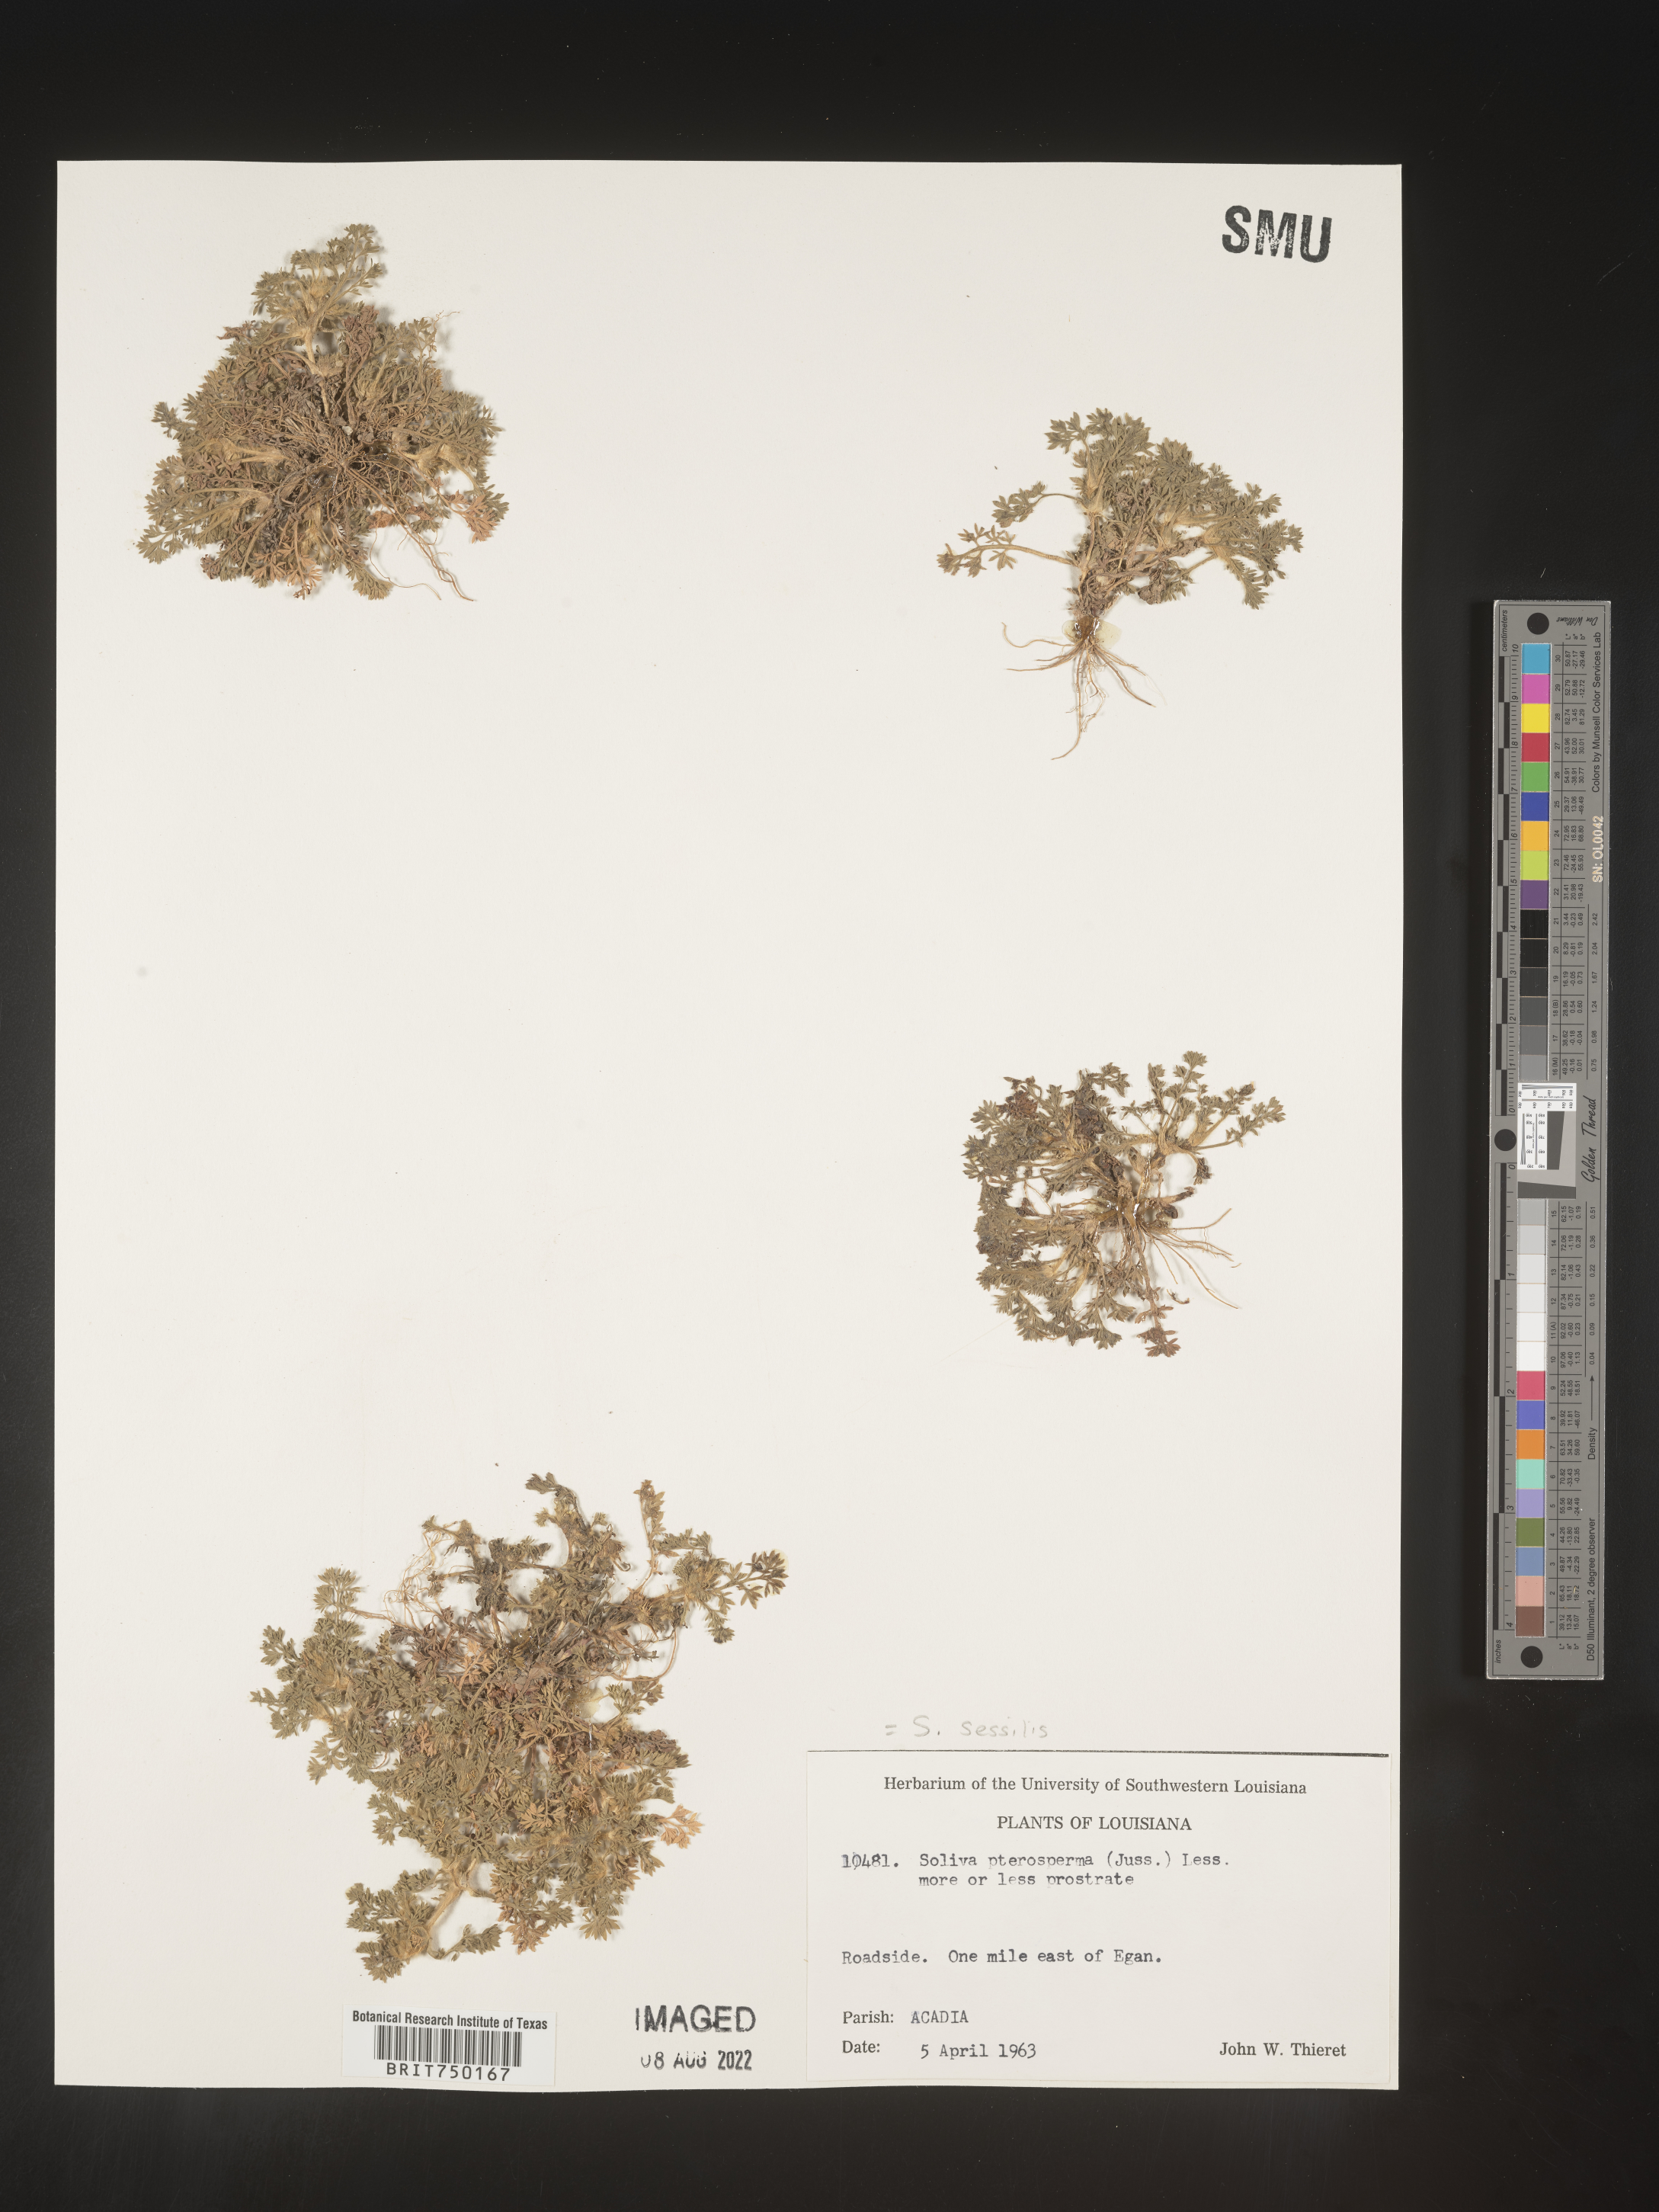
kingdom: Plantae
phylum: Tracheophyta
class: Magnoliopsida
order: Asterales
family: Asteraceae
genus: Soliva
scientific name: Soliva sessilis
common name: Field burrweed
